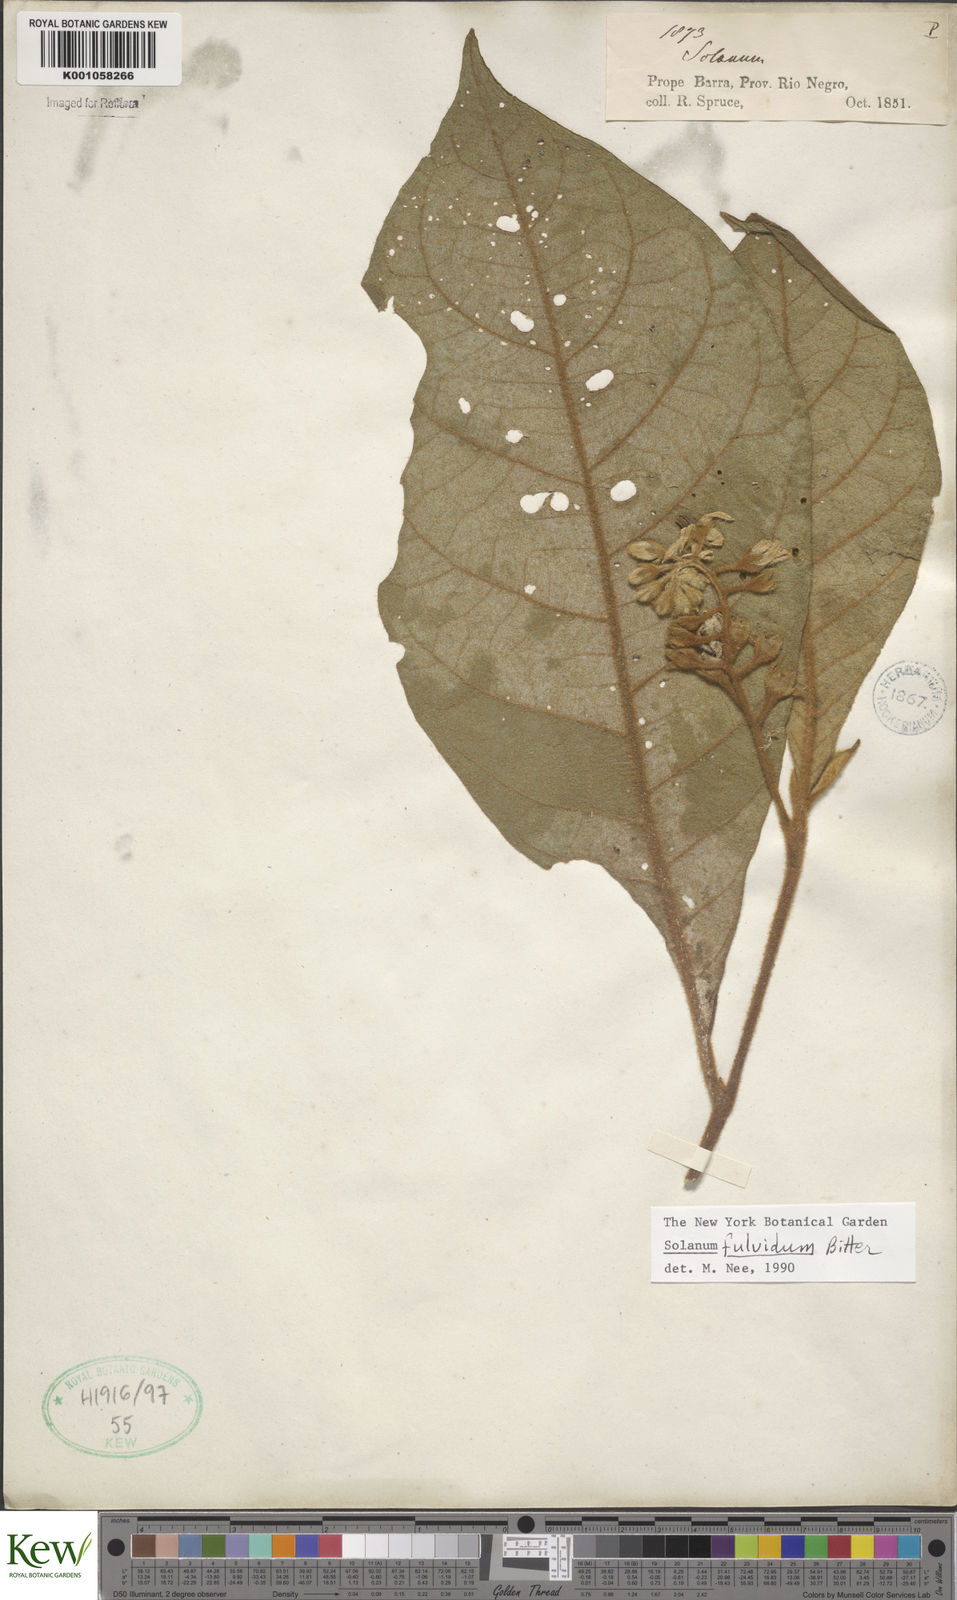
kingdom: Plantae
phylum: Tracheophyta
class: Magnoliopsida
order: Solanales
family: Solanaceae
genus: Solanum
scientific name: Solanum fulvidum
